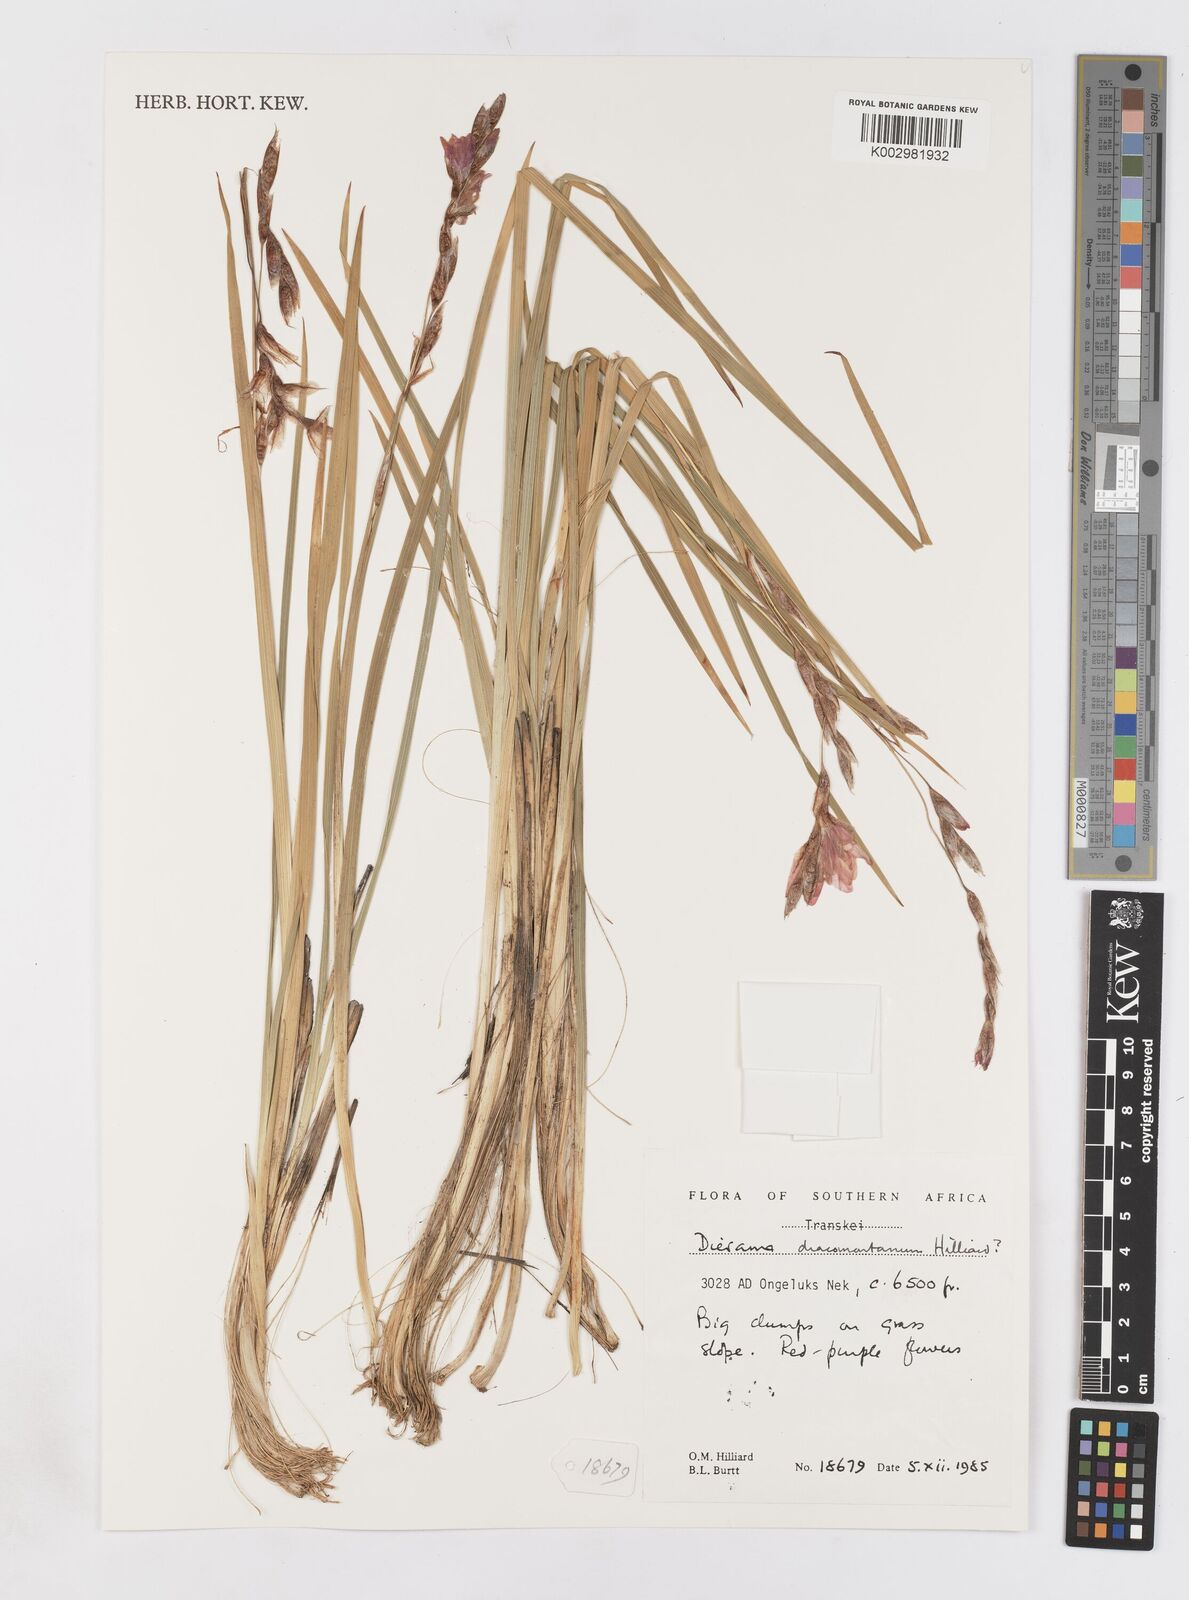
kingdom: Plantae
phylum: Tracheophyta
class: Liliopsida
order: Asparagales
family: Iridaceae
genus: Dierama
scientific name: Dierama dracomontanum
